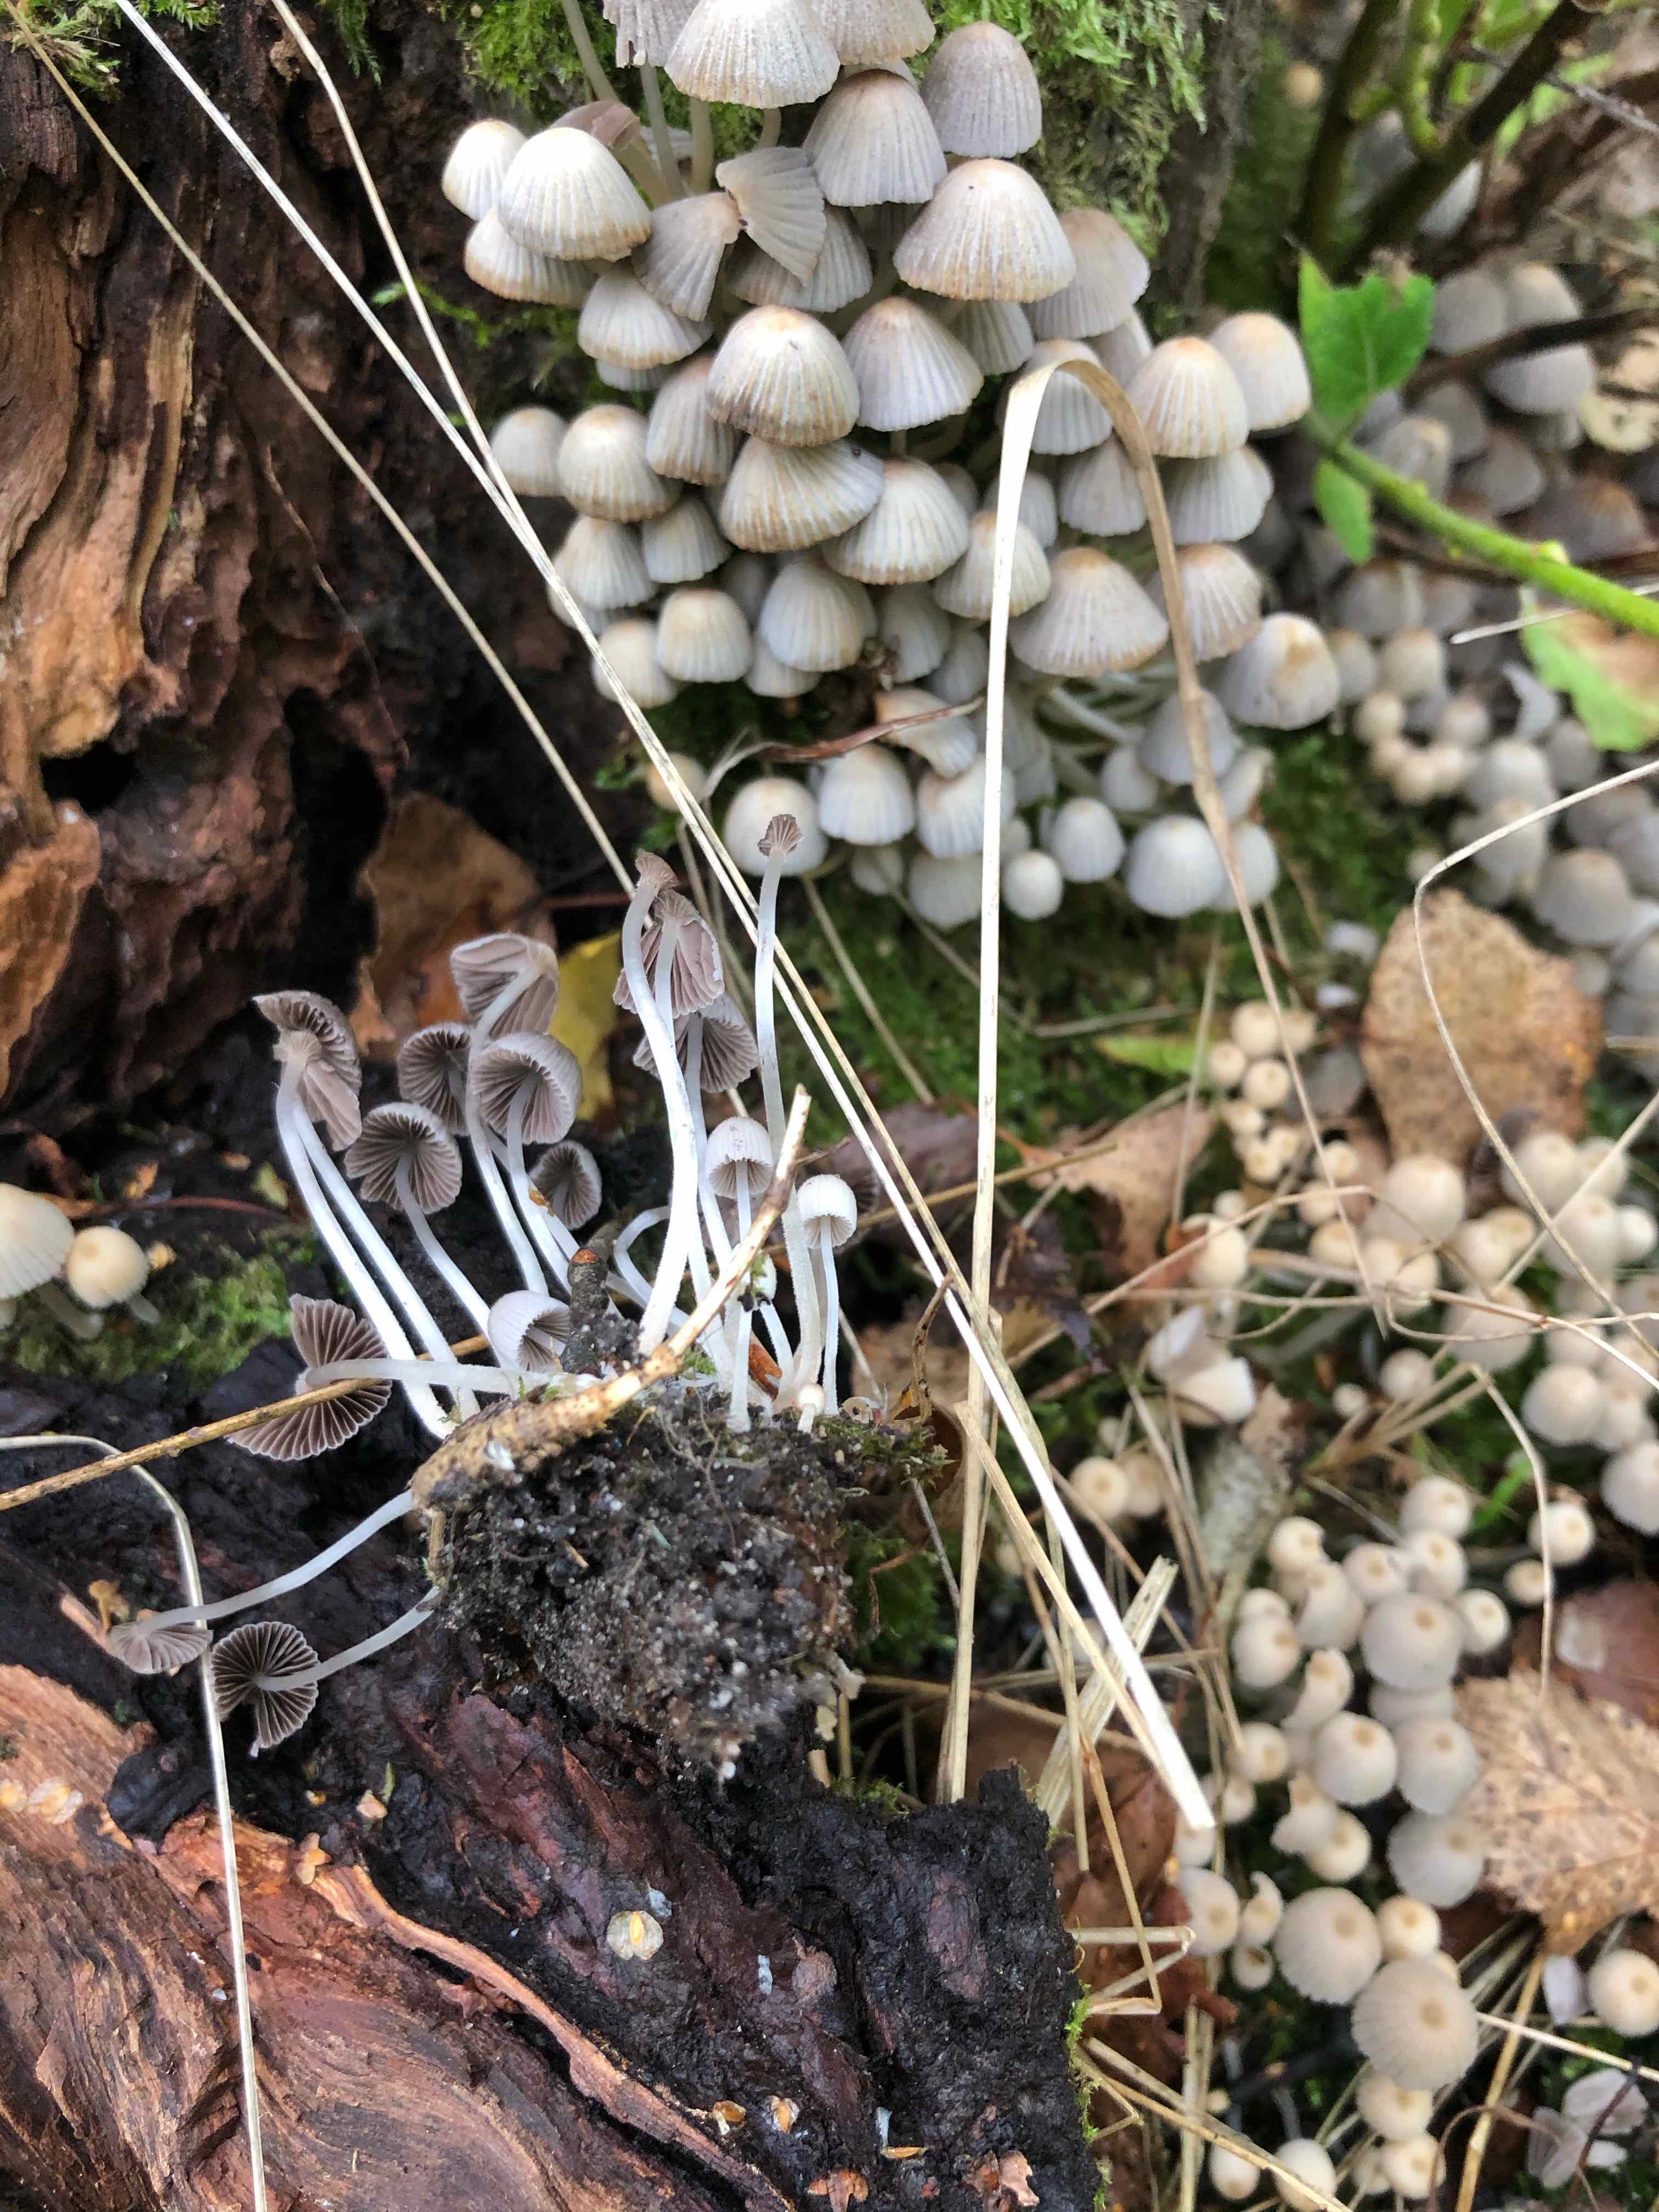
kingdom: Fungi
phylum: Basidiomycota
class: Agaricomycetes
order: Agaricales
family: Psathyrellaceae
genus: Coprinellus
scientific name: Coprinellus disseminatus
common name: bredsået blækhat
